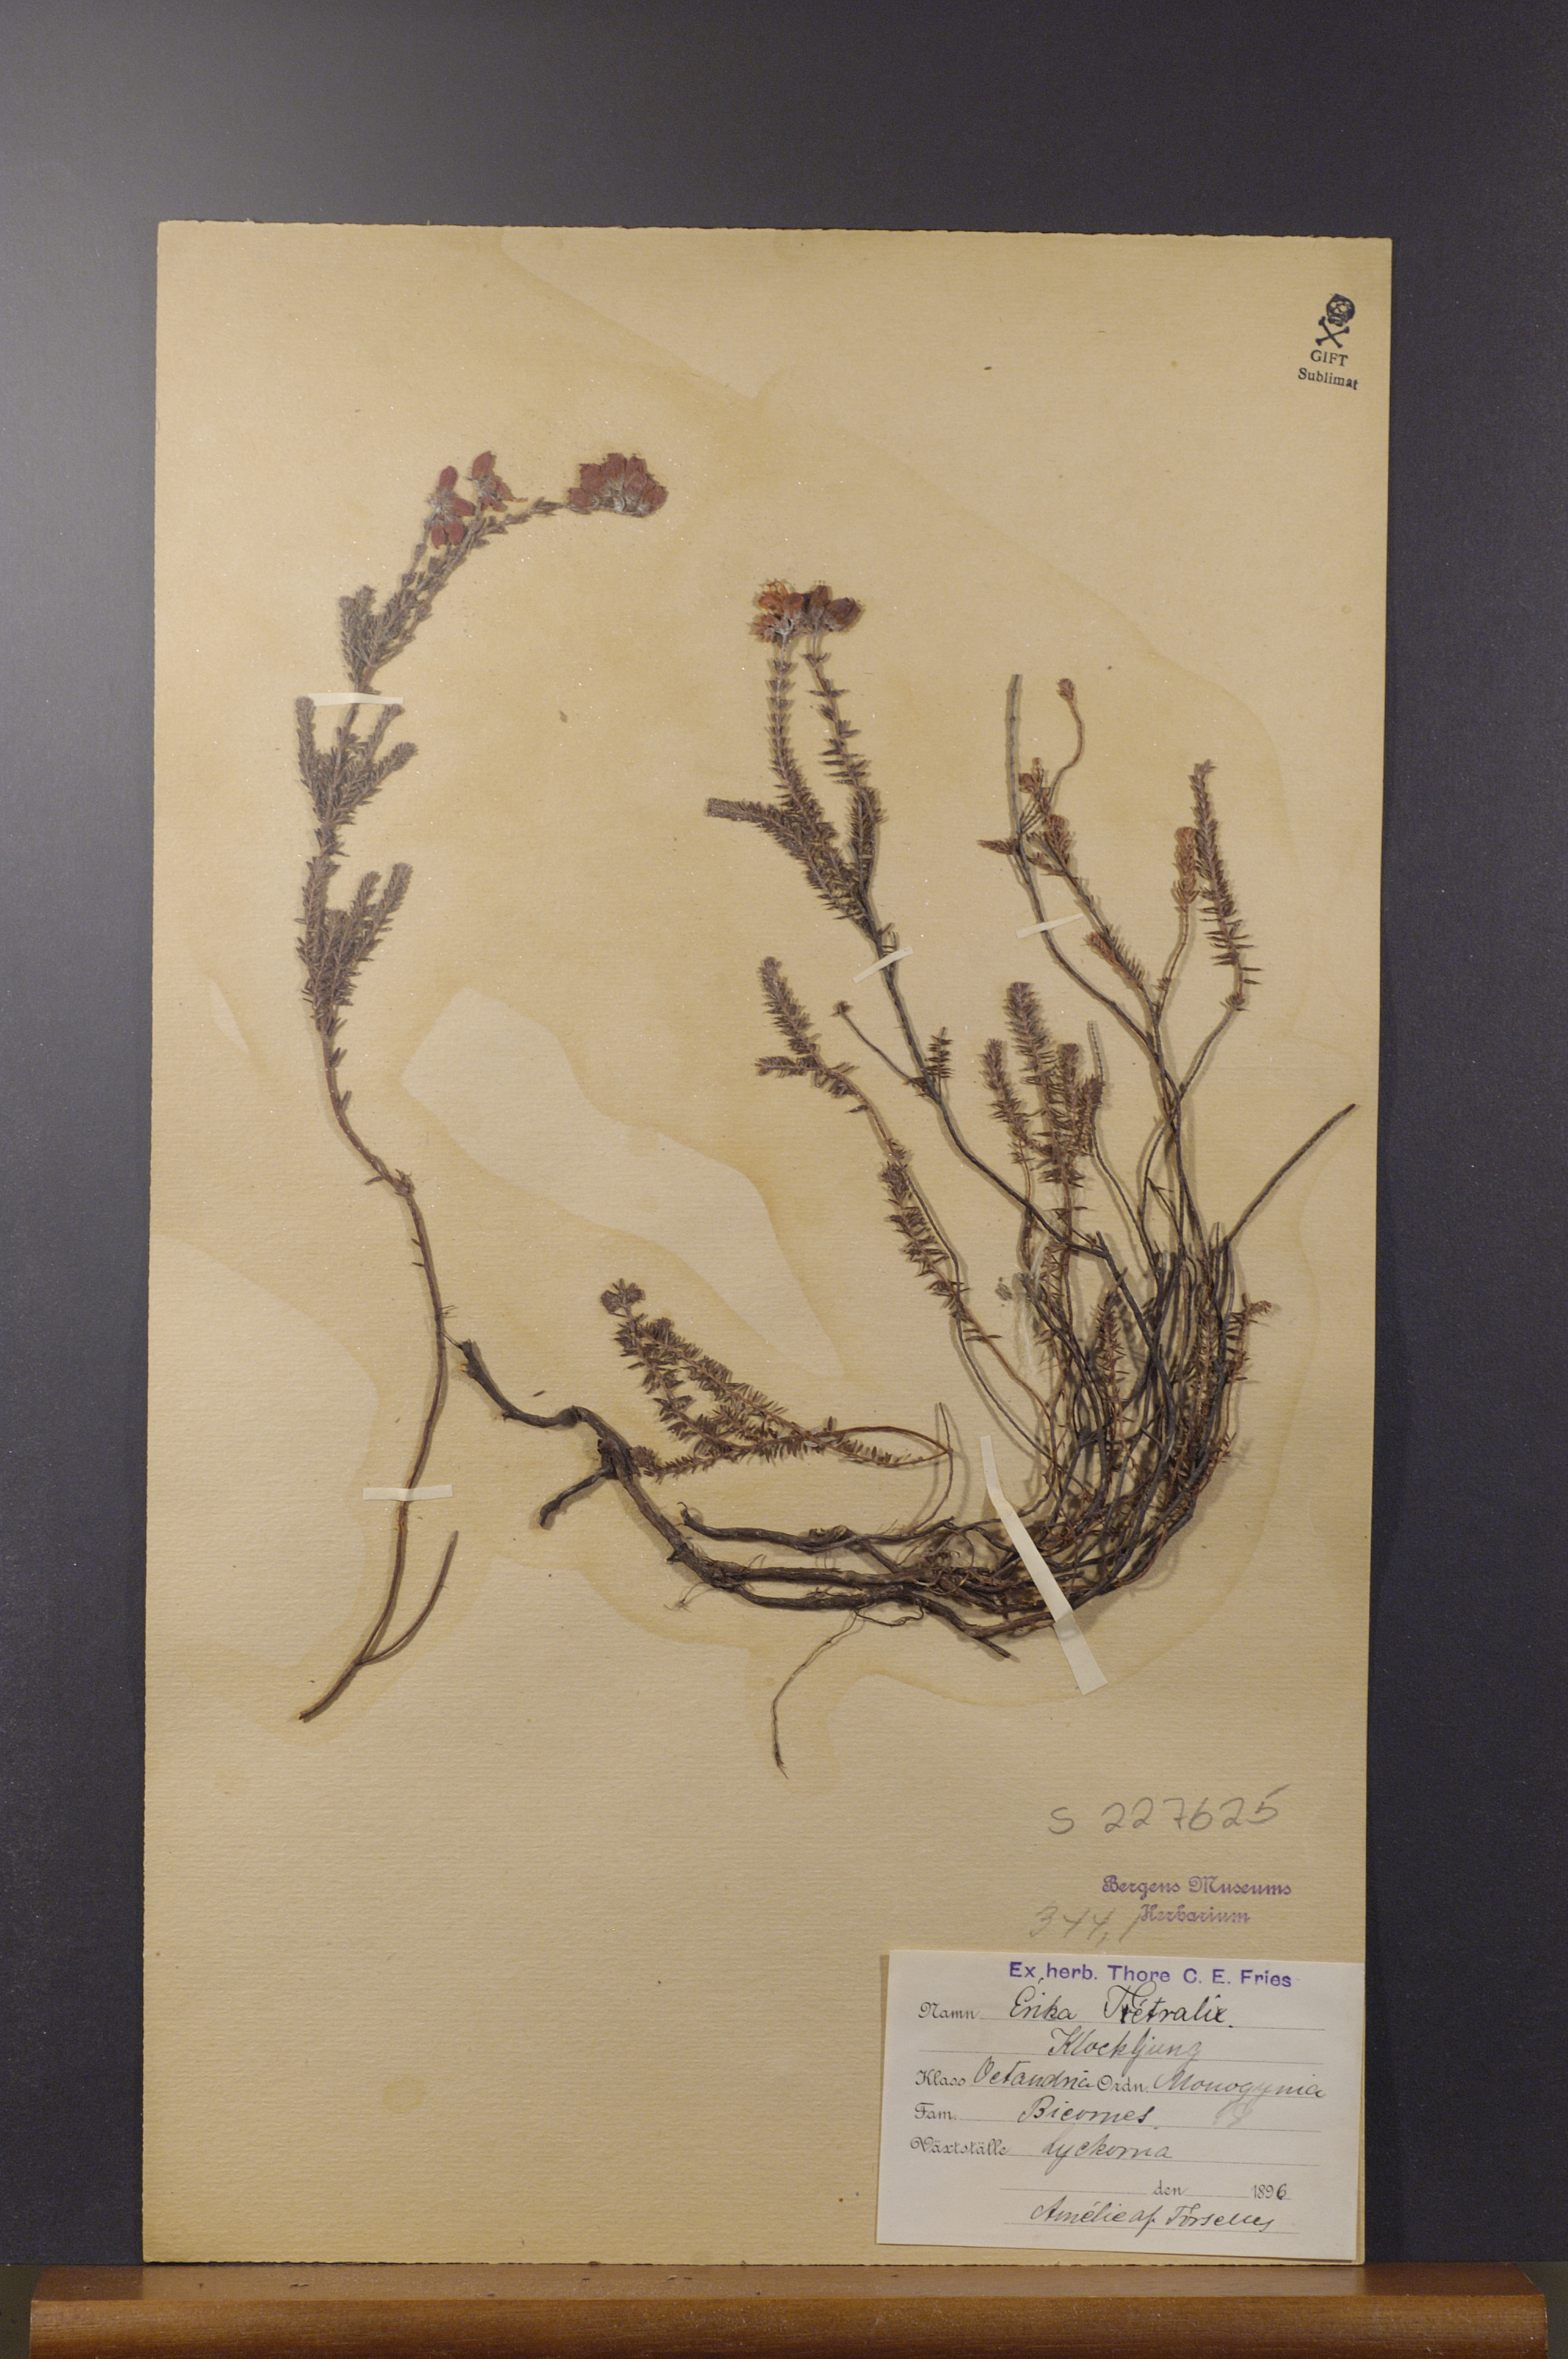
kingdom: Plantae
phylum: Tracheophyta
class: Magnoliopsida
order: Ericales
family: Ericaceae
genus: Erica
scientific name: Erica tetralix
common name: Cross-leaved heath
